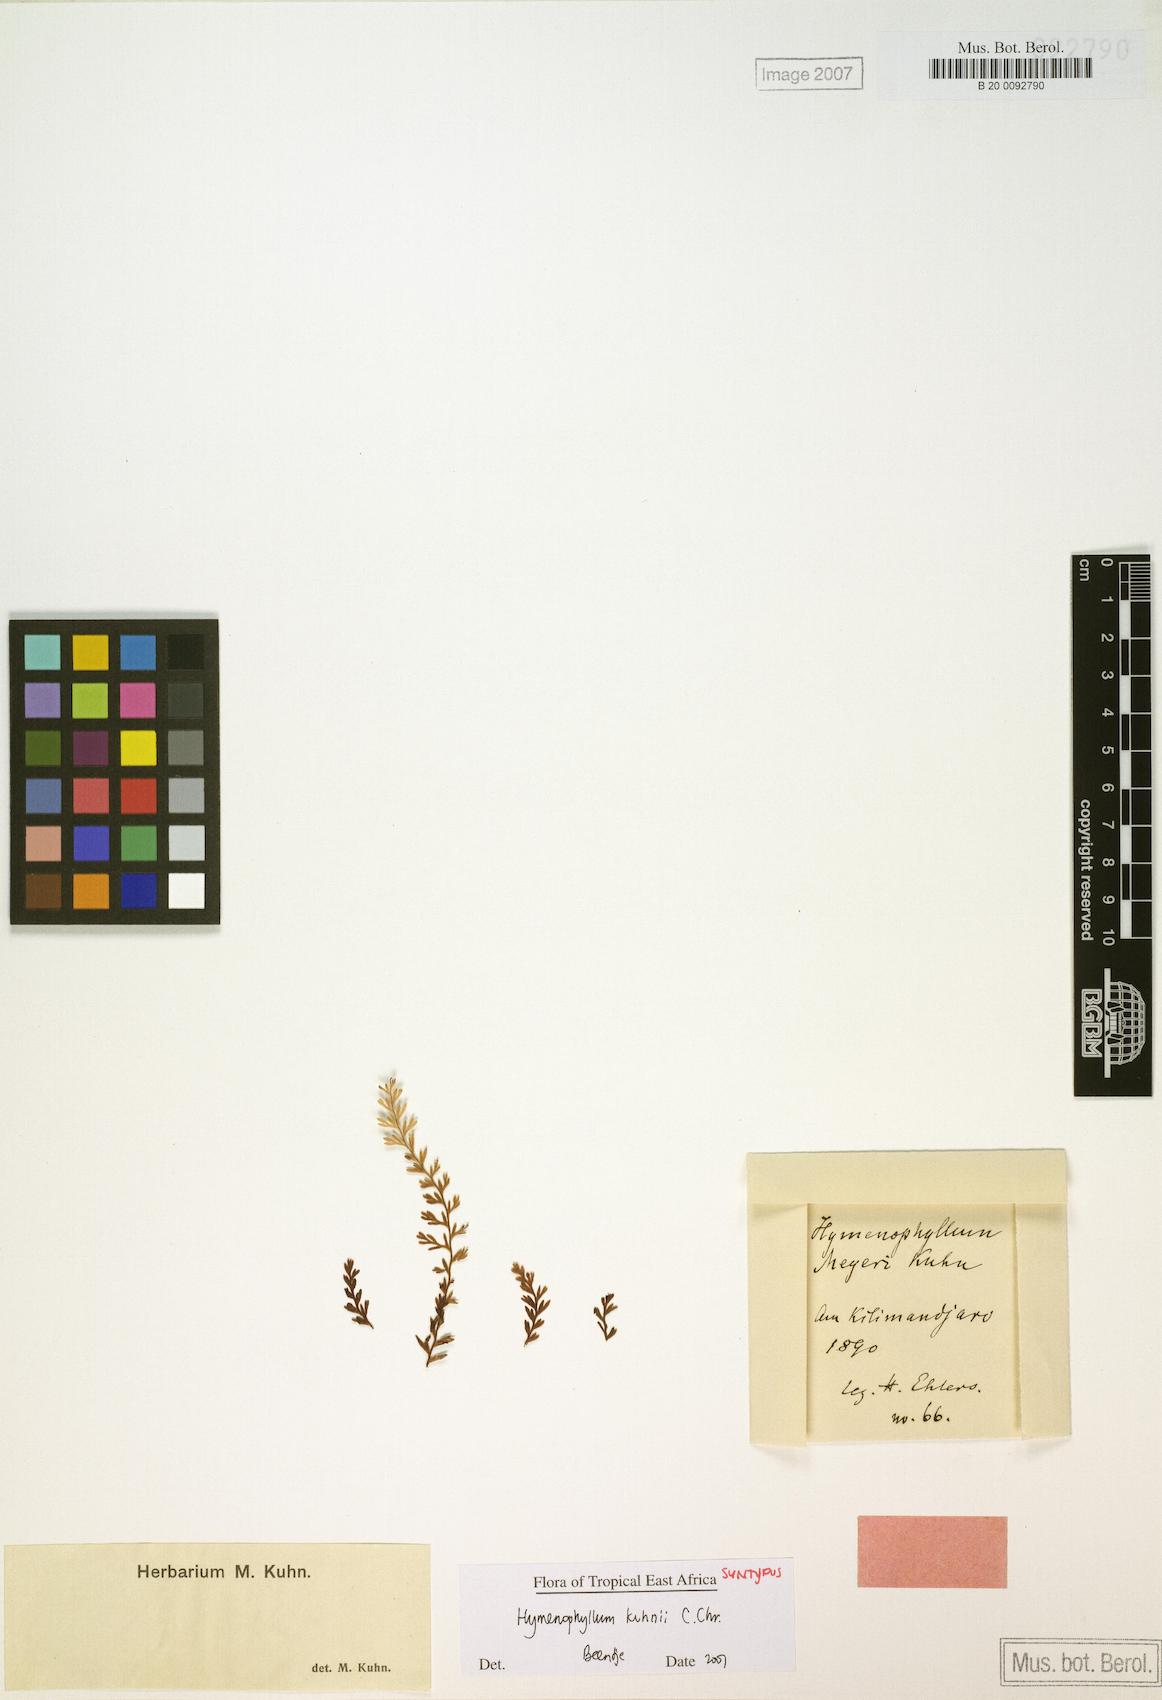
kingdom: Plantae
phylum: Tracheophyta
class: Polypodiopsida
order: Hymenophyllales
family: Hymenophyllaceae
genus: Hymenophyllum
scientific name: Hymenophyllum kuhnii
